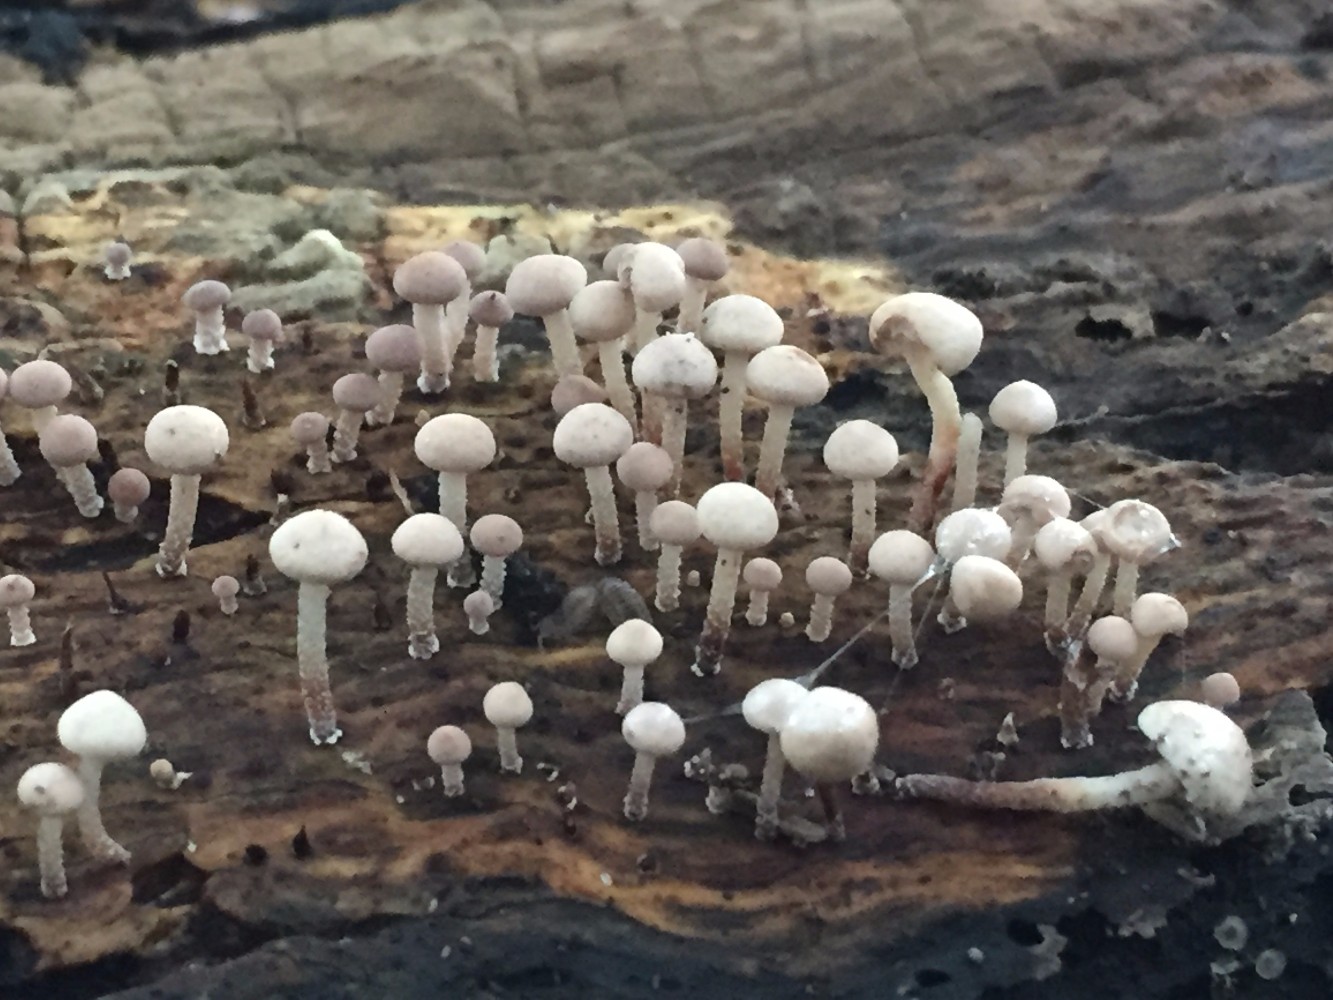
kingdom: Fungi
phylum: Basidiomycota
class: Agaricomycetes
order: Agaricales
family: Omphalotaceae
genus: Collybiopsis
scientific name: Collybiopsis ramealis
